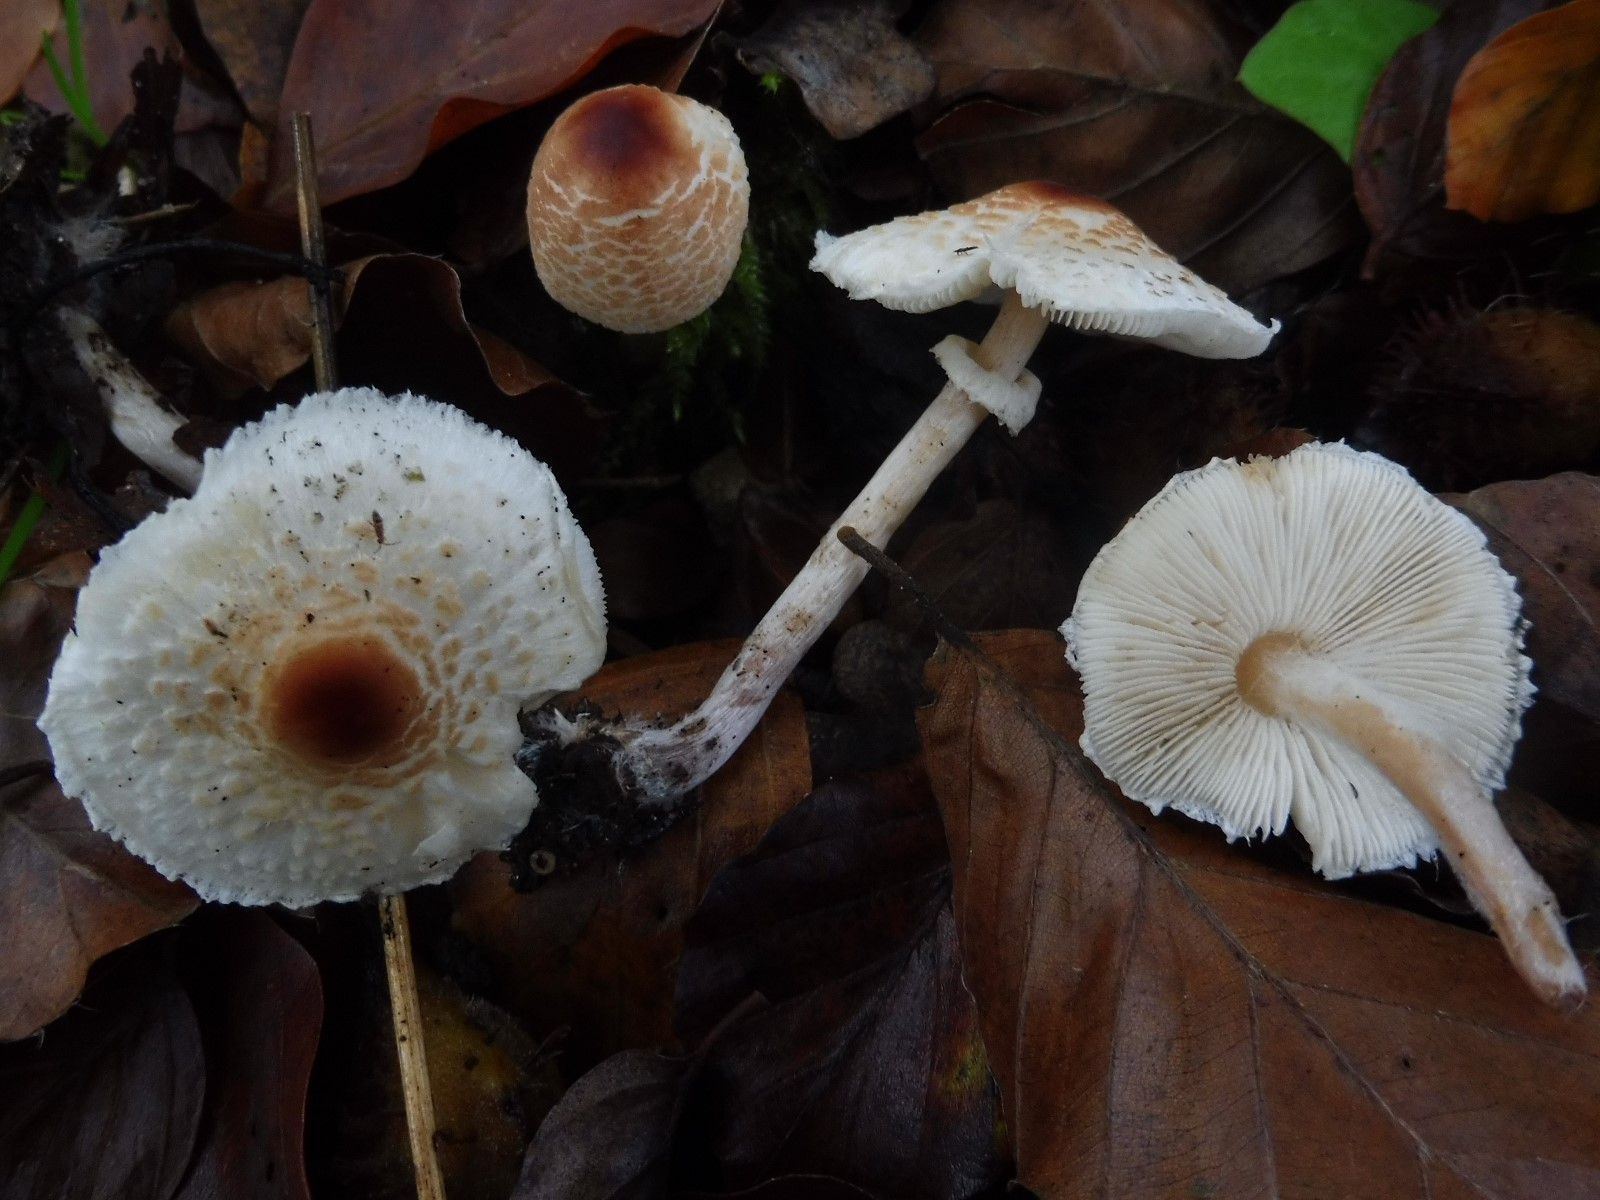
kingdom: Fungi
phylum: Basidiomycota
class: Agaricomycetes
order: Agaricales
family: Agaricaceae
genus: Lepiota
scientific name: Lepiota cristata
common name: stinkende parasolhat
